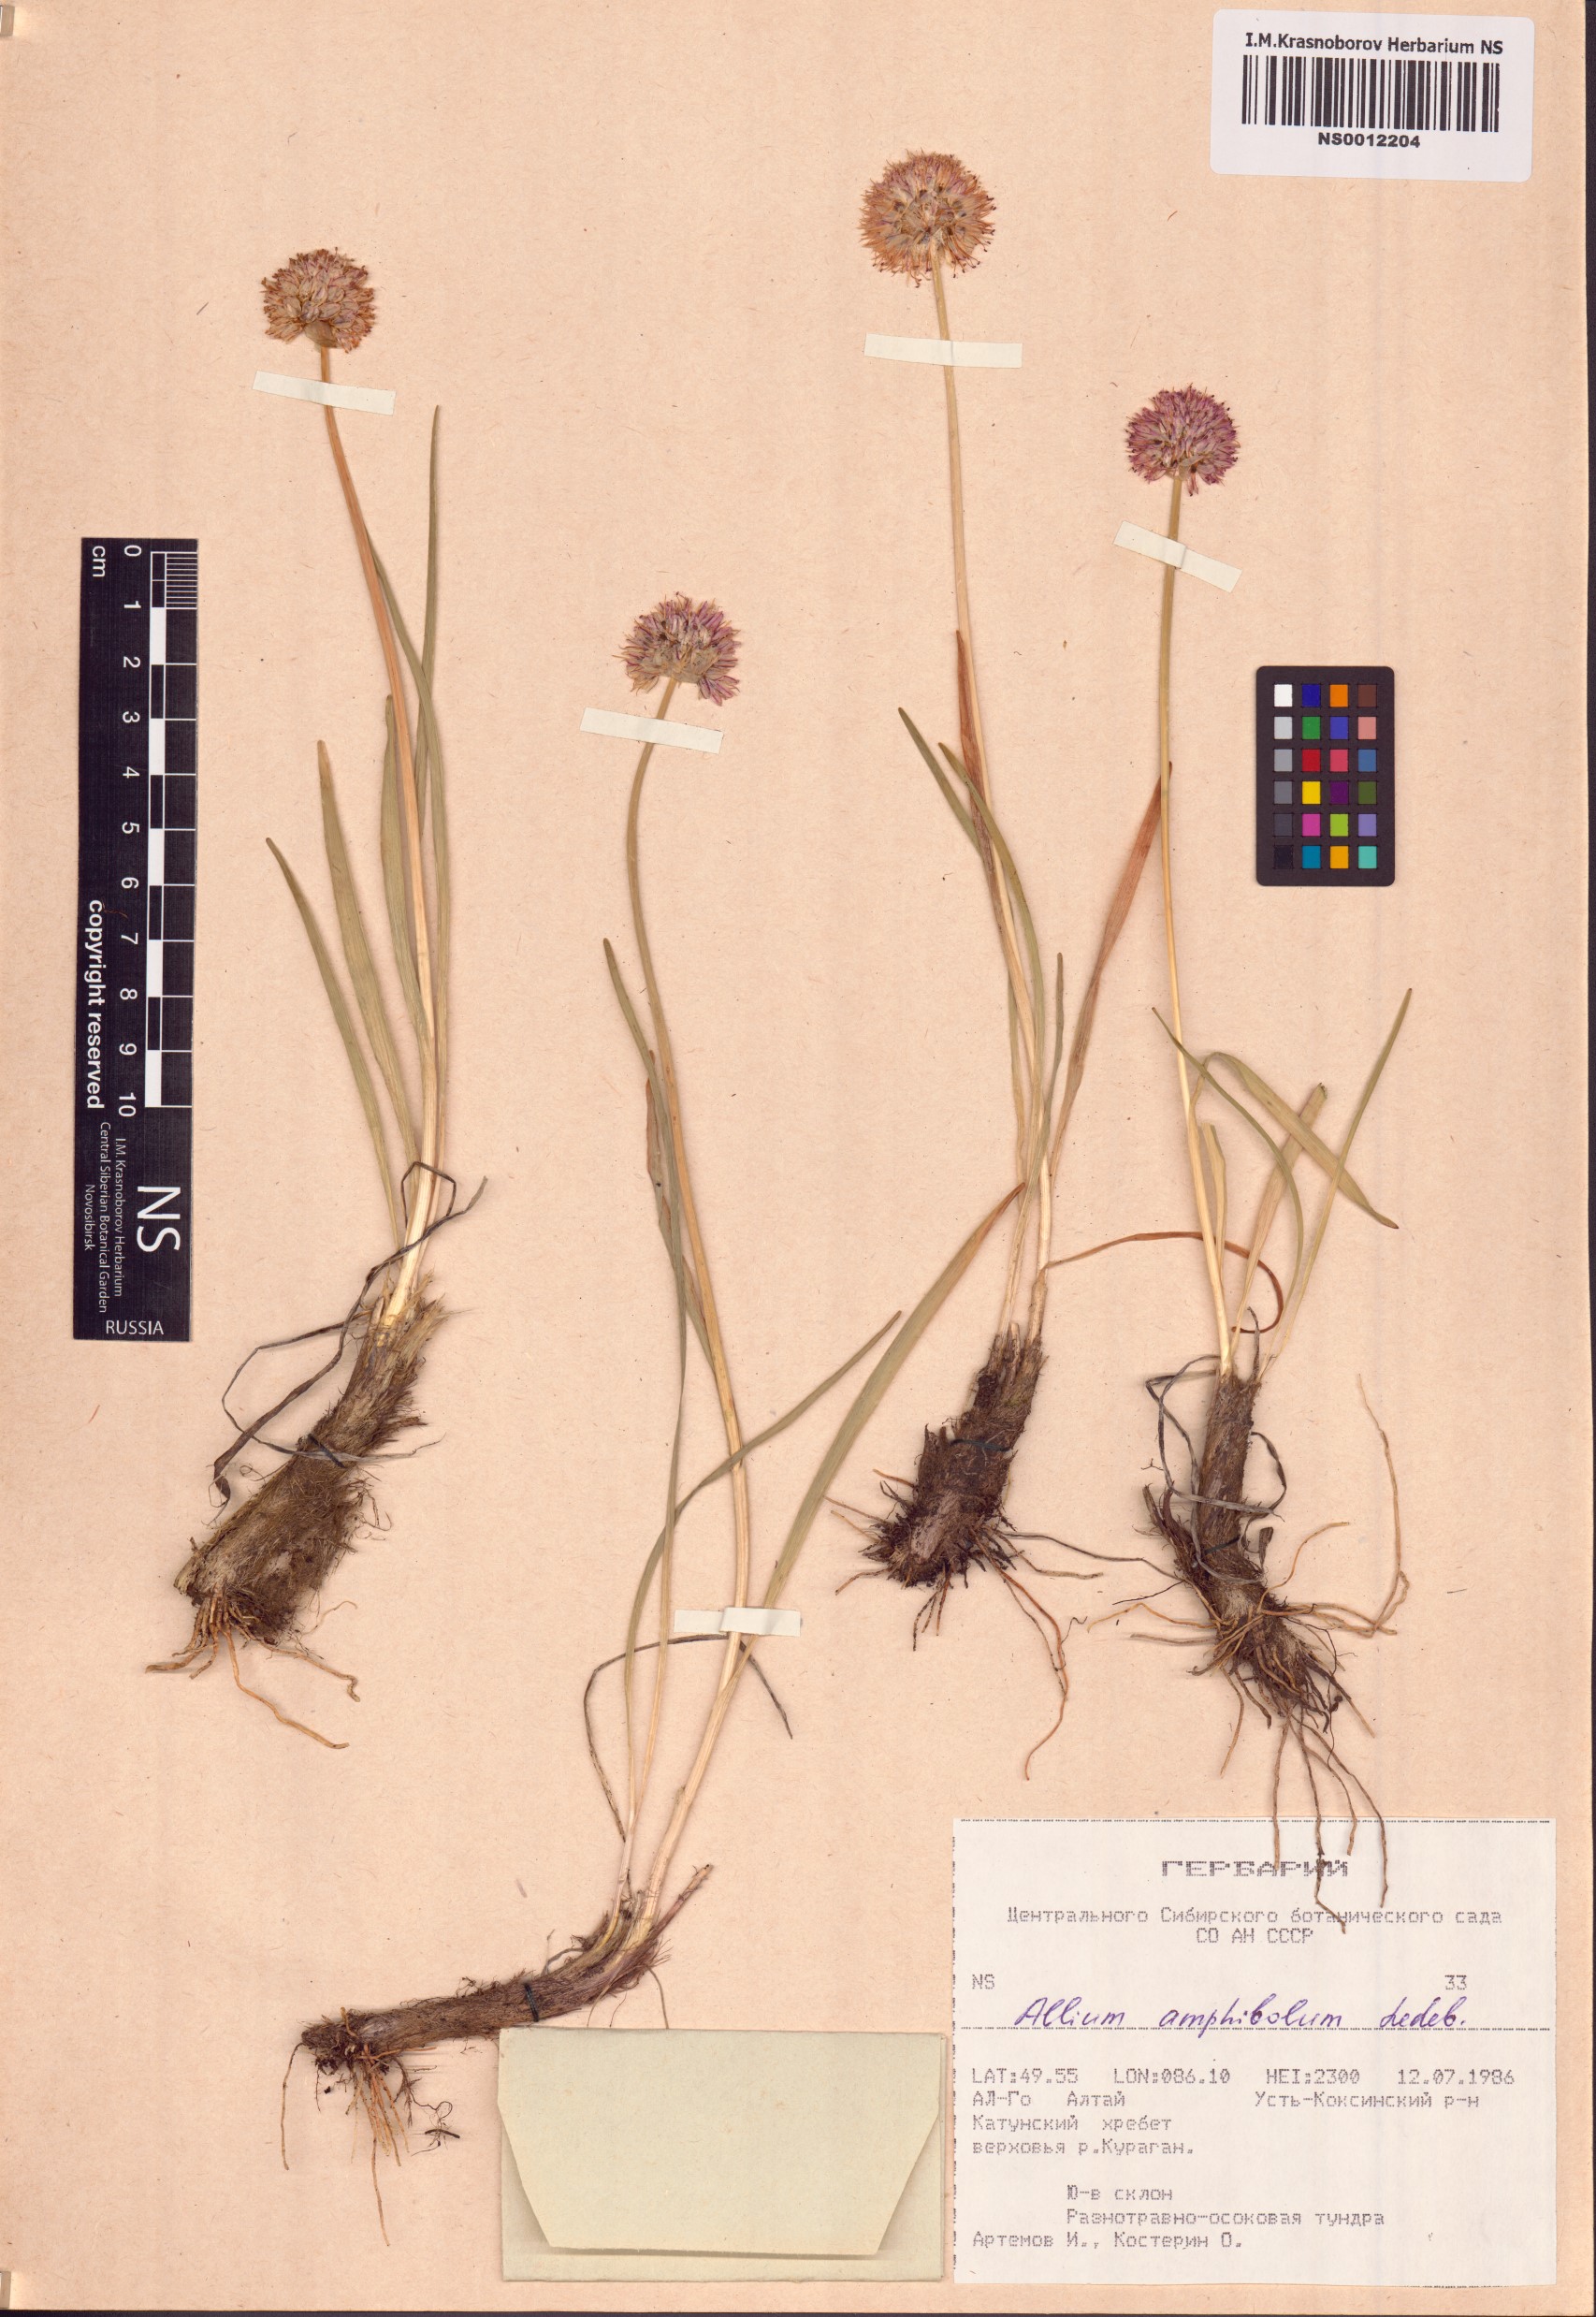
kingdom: Plantae
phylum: Tracheophyta
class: Liliopsida
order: Asparagales
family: Amaryllidaceae
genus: Allium
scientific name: Allium amphibolum
